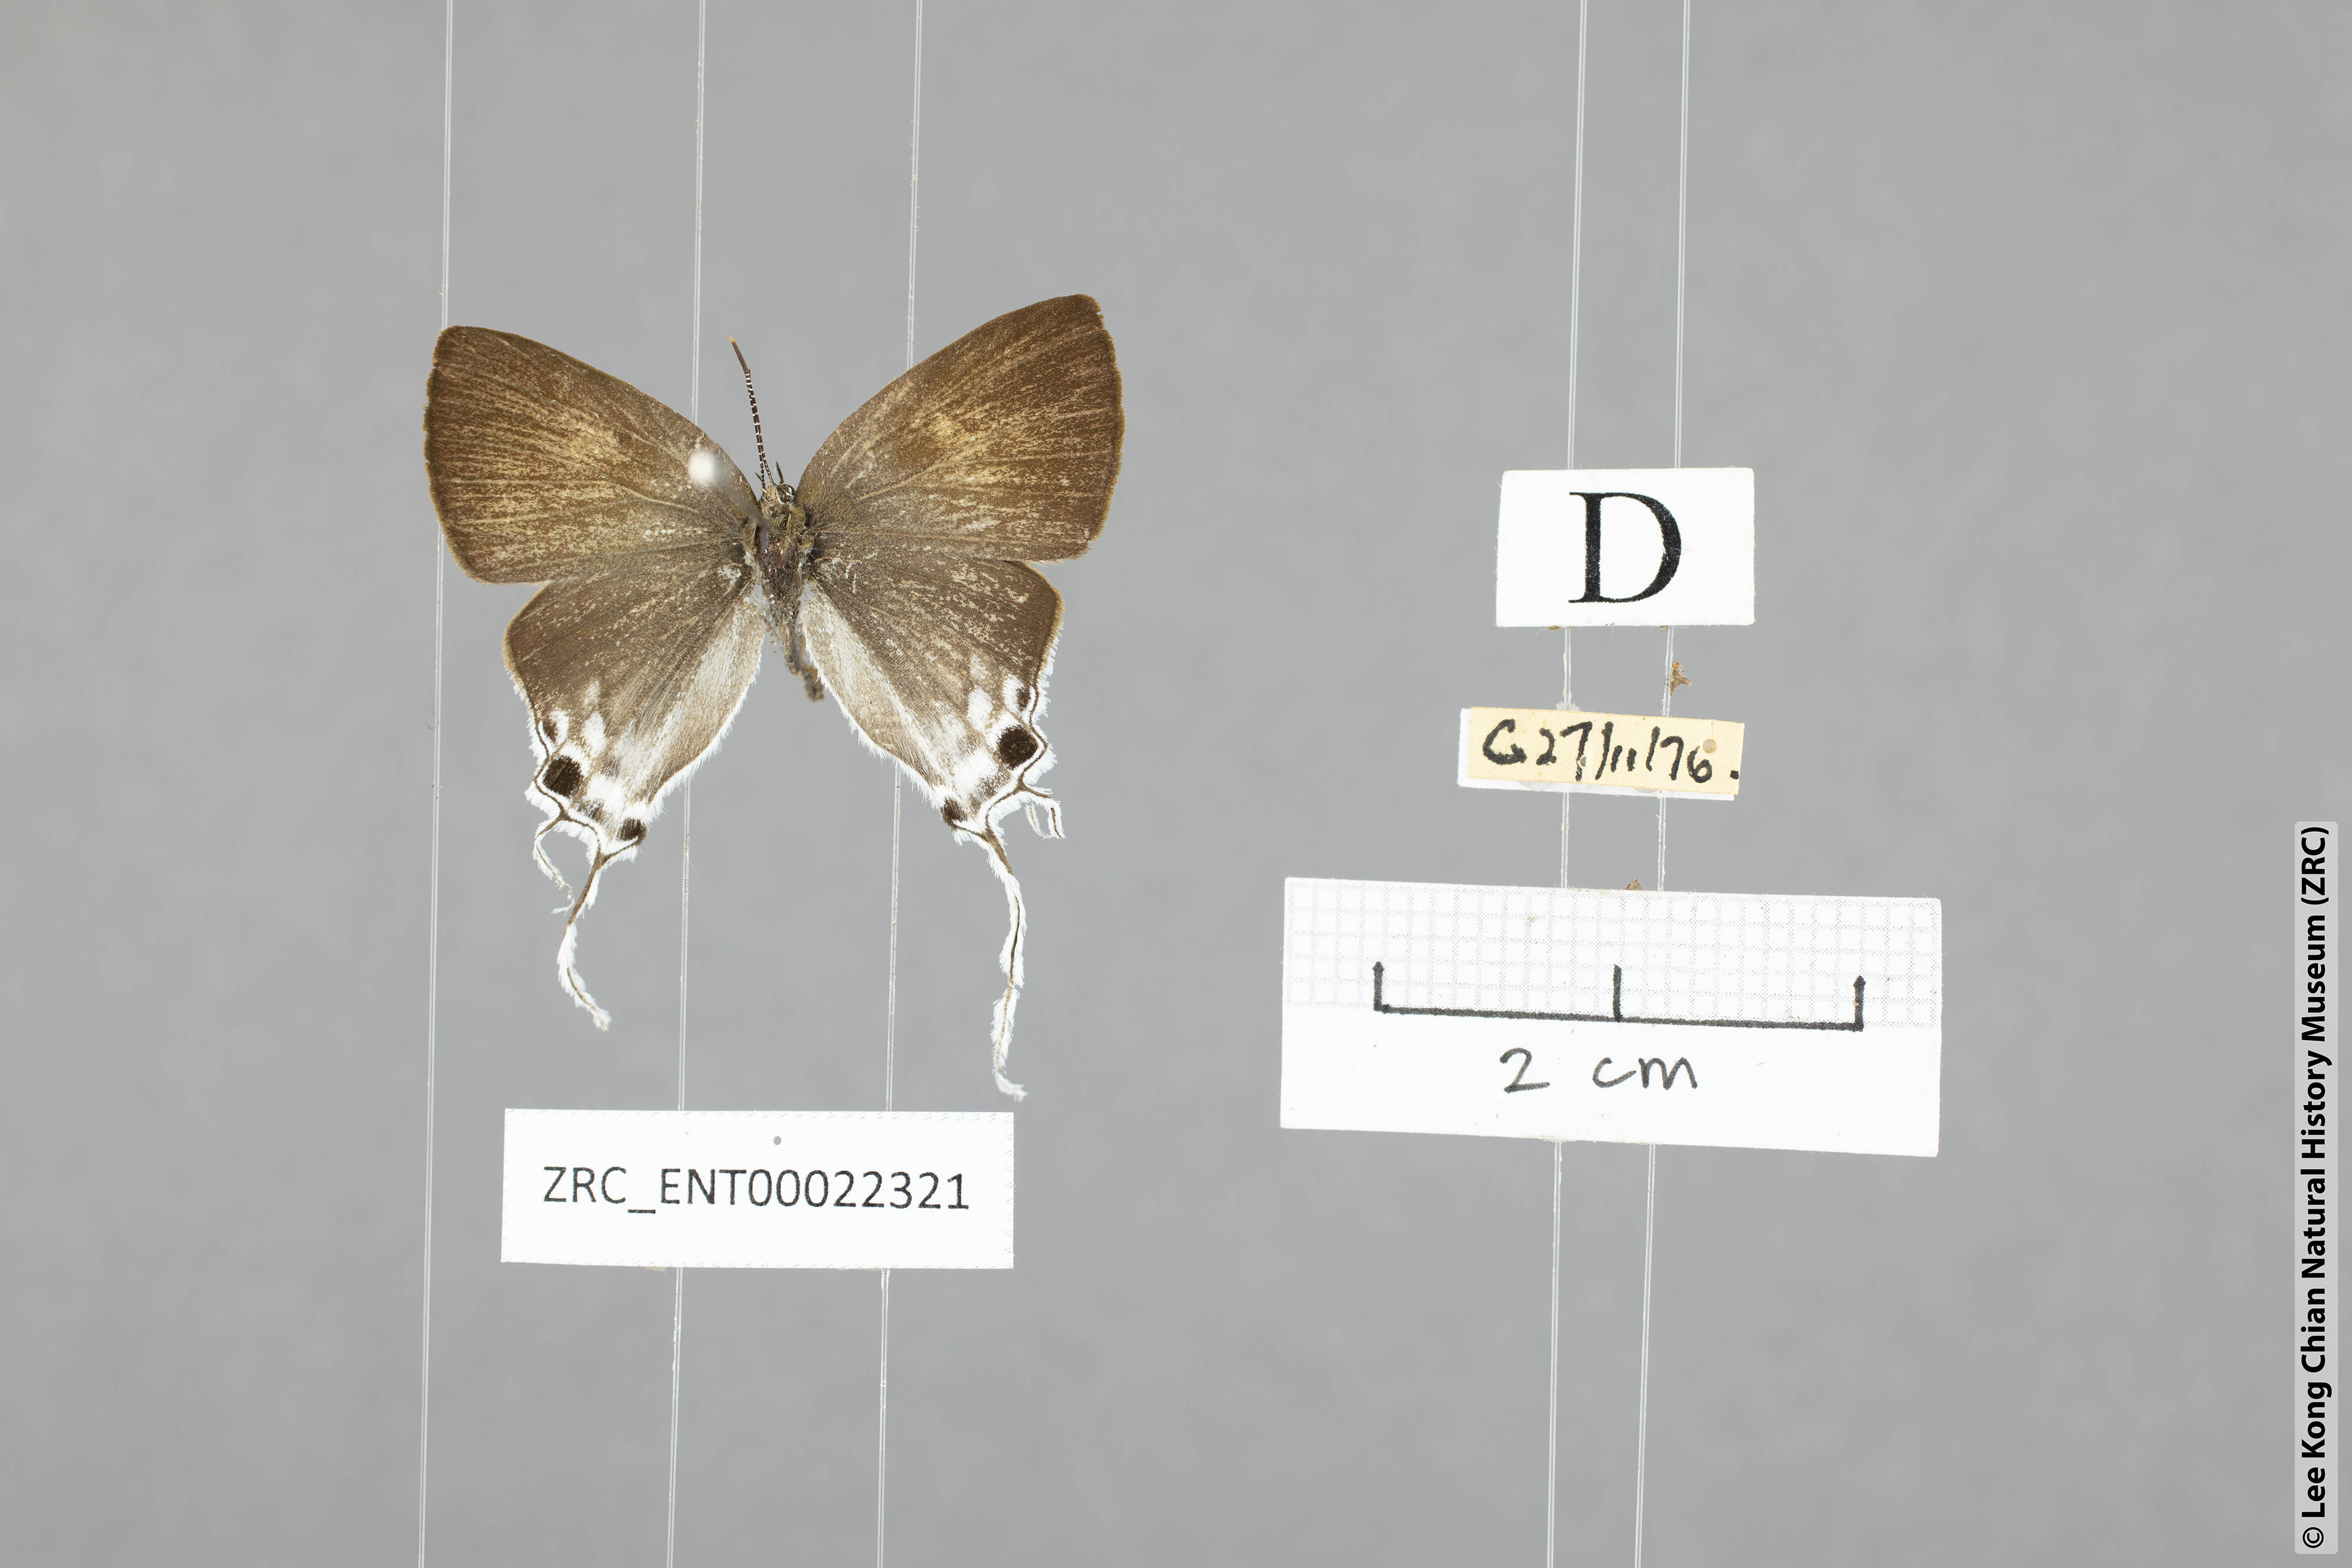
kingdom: Animalia
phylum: Arthropoda
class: Insecta
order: Lepidoptera
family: Lycaenidae
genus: Zeltus
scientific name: Zeltus amasa
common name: Fluffy tit
